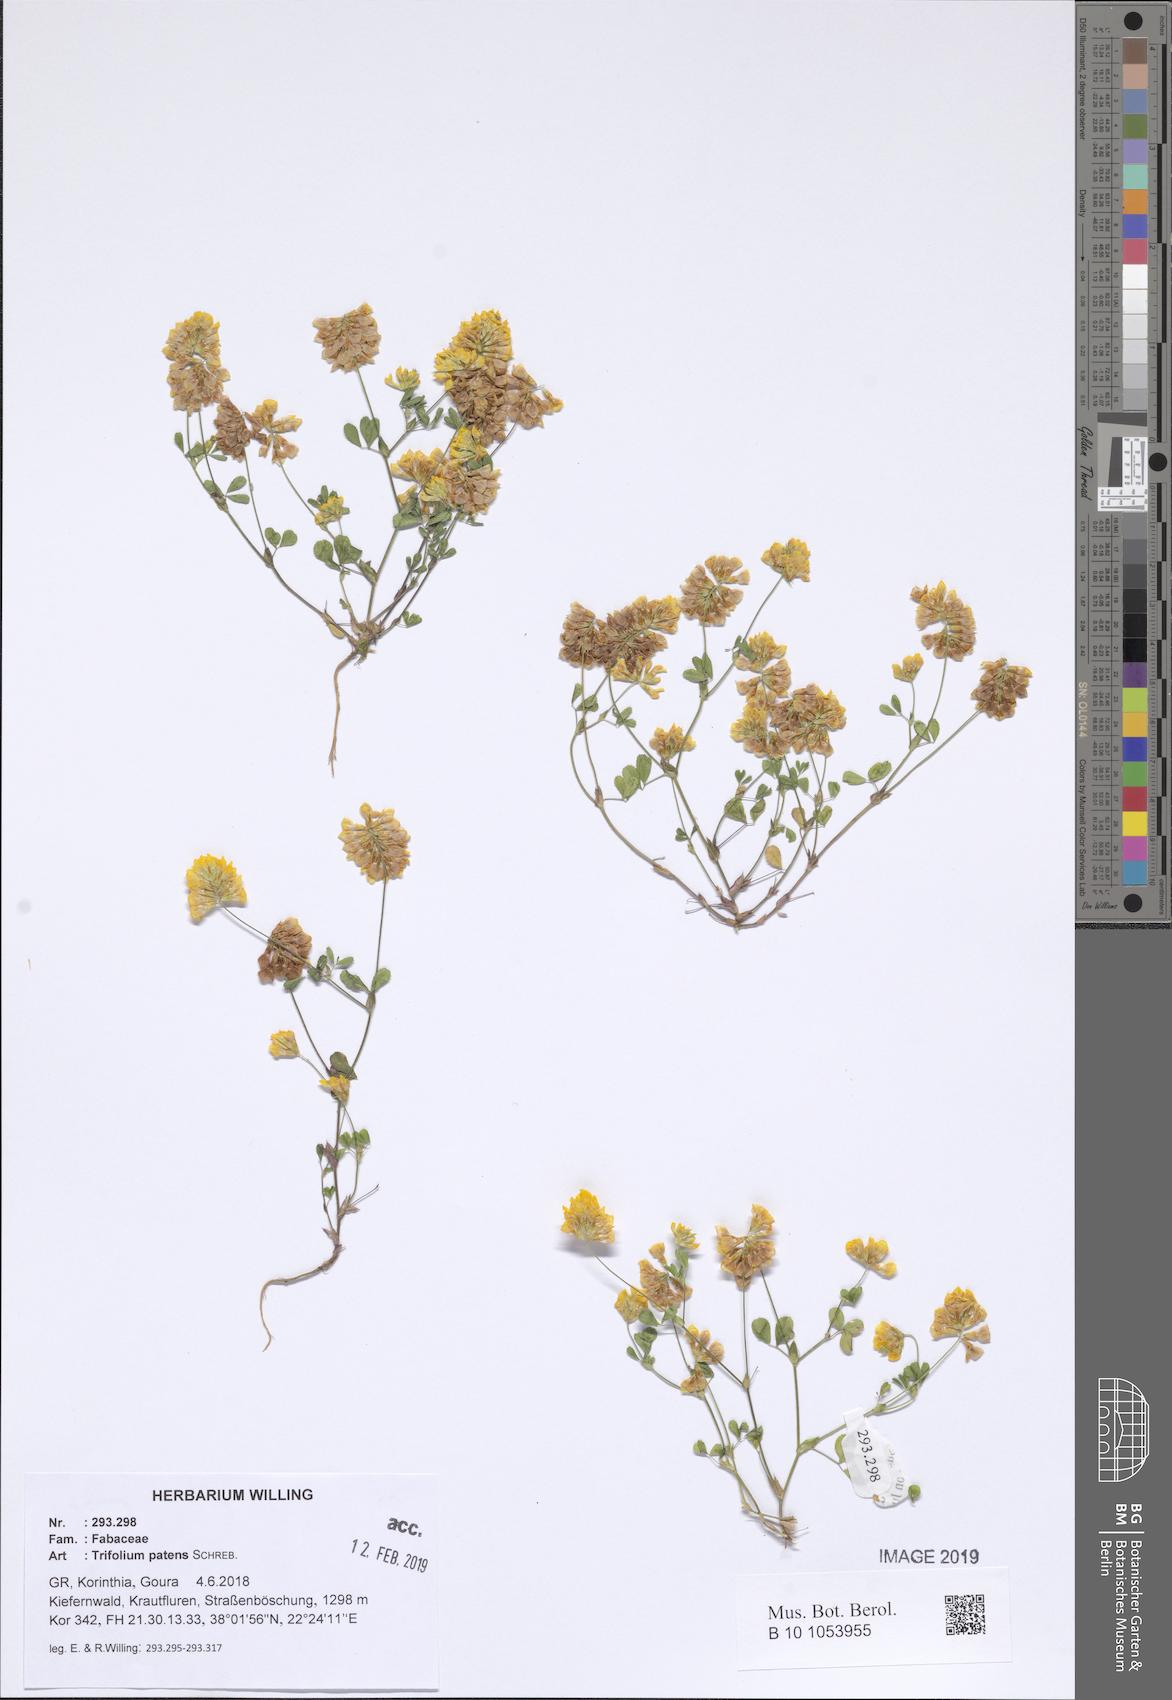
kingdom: Plantae
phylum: Tracheophyta
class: Magnoliopsida
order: Fabales
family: Fabaceae
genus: Trifolium
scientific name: Trifolium patens
